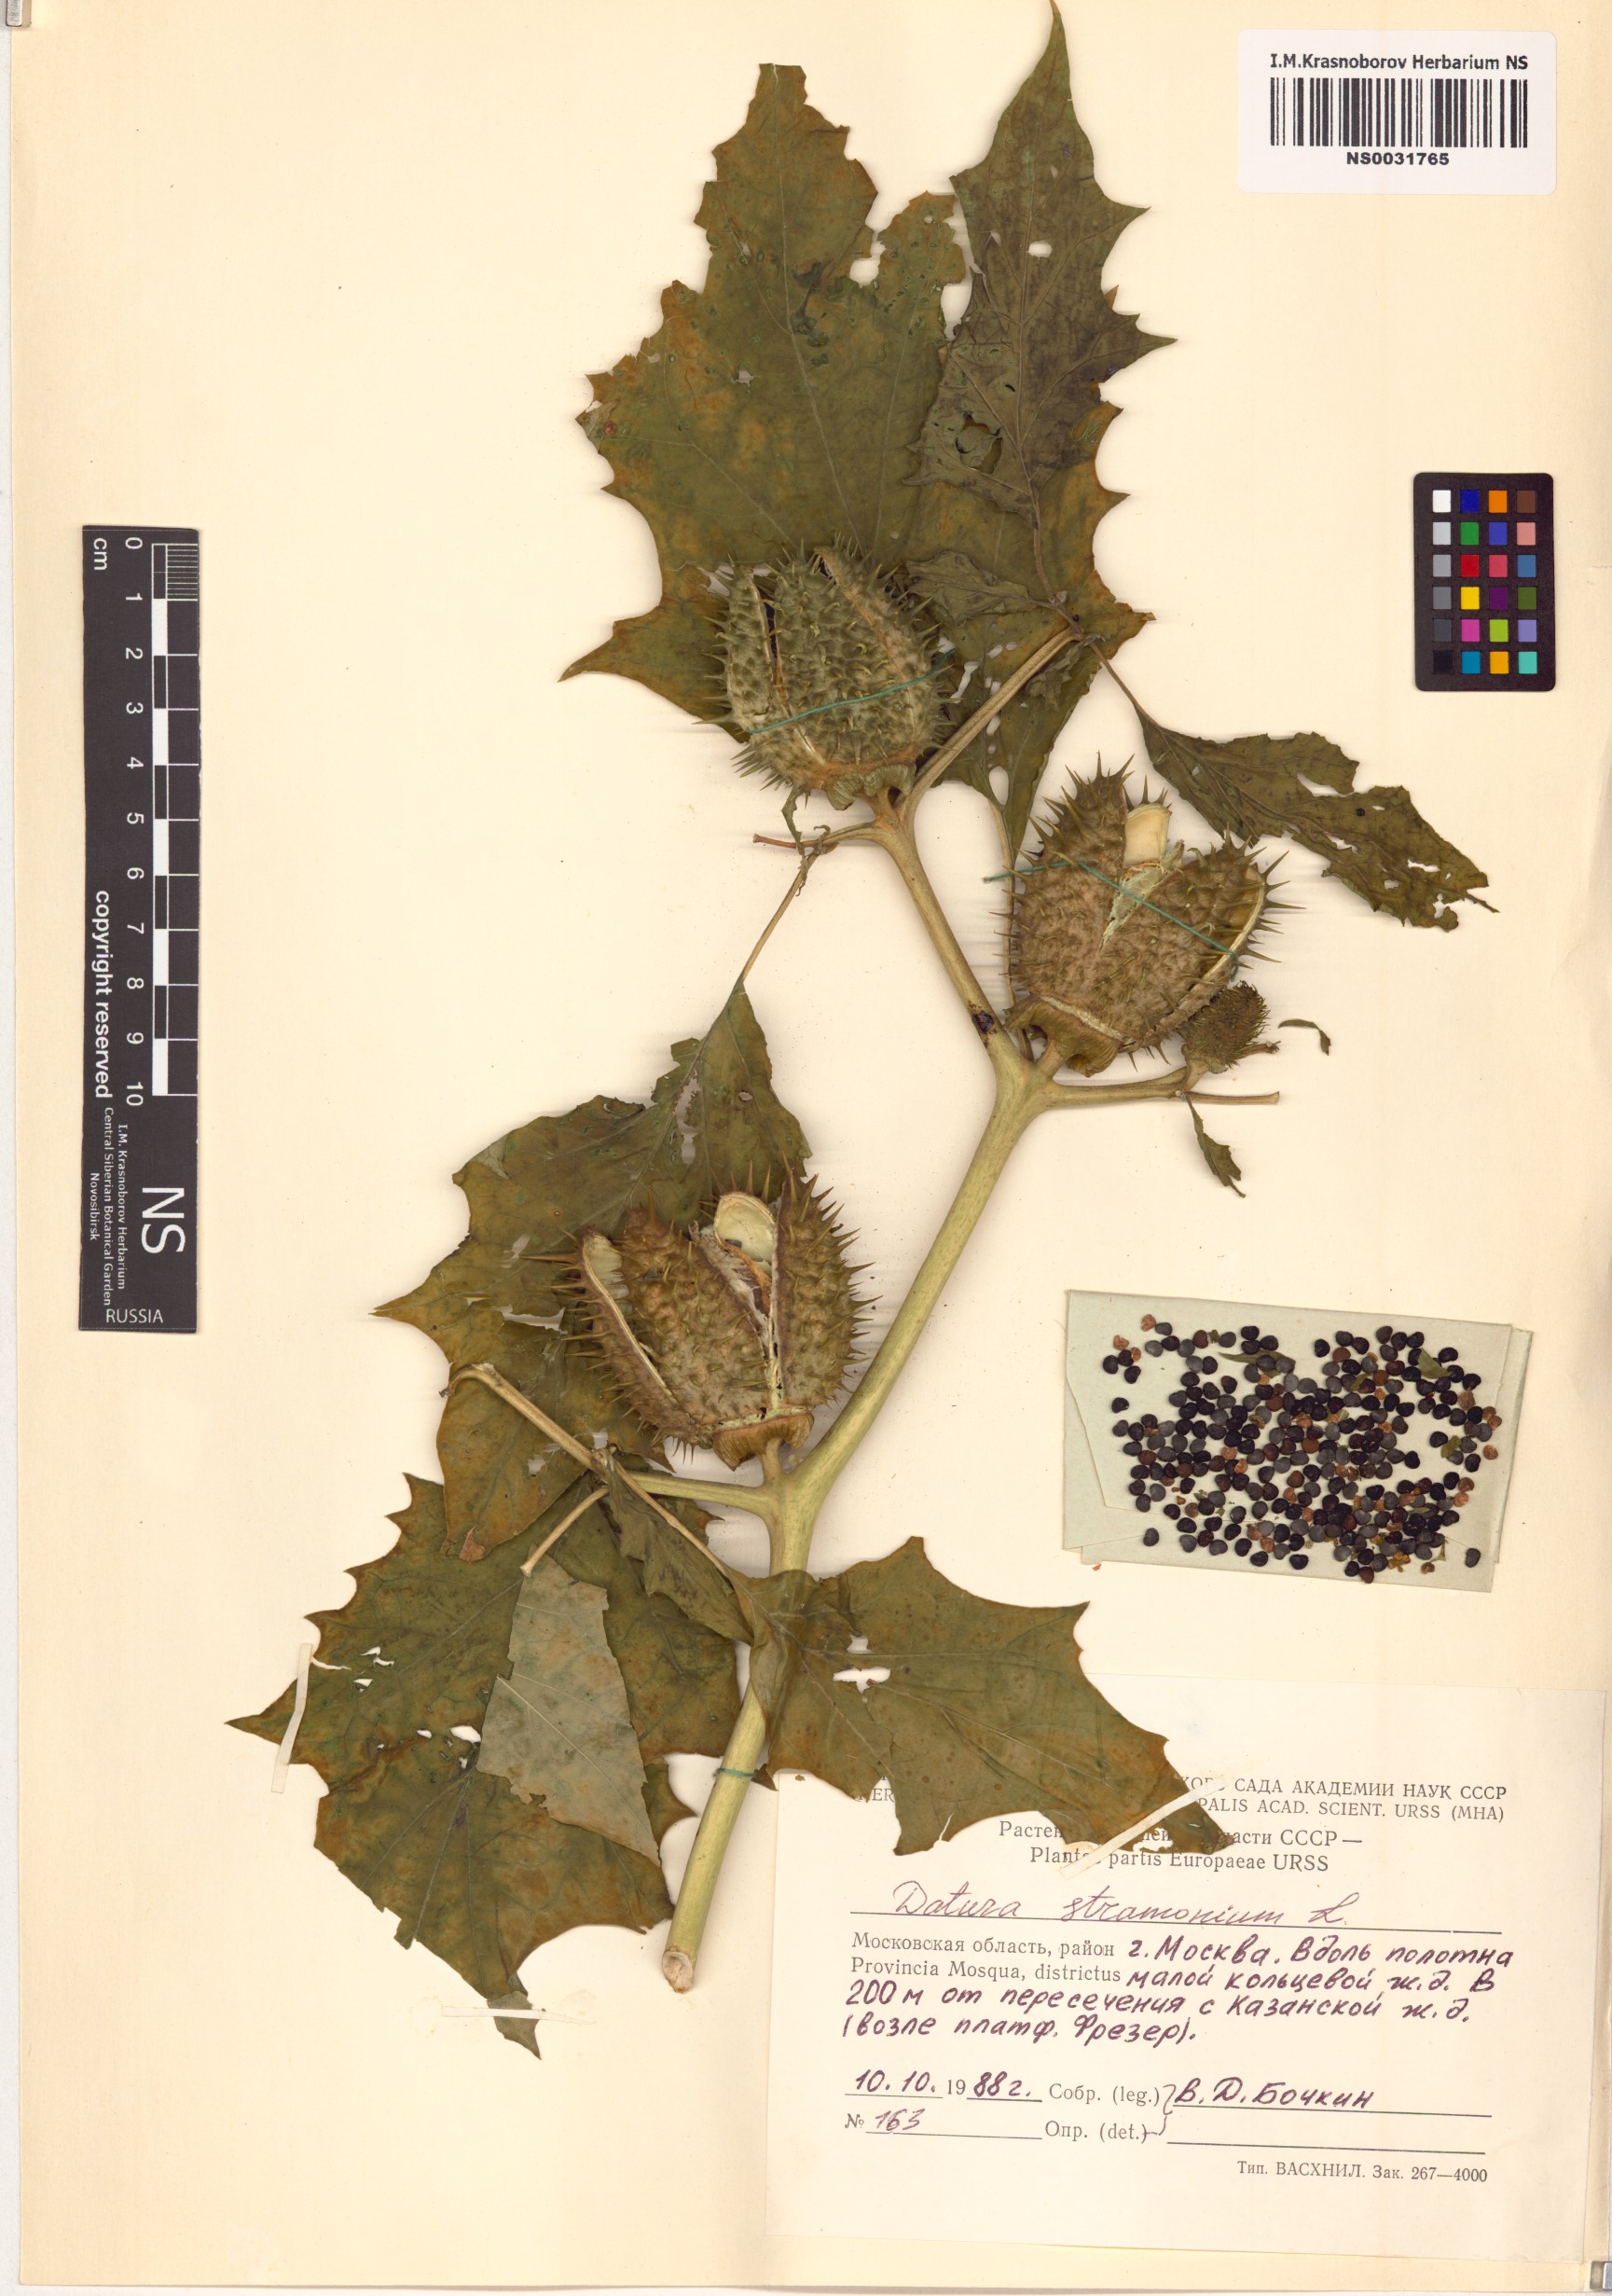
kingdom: Plantae
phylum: Tracheophyta
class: Magnoliopsida
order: Solanales
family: Solanaceae
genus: Datura
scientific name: Datura stramonium
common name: Thorn-apple
